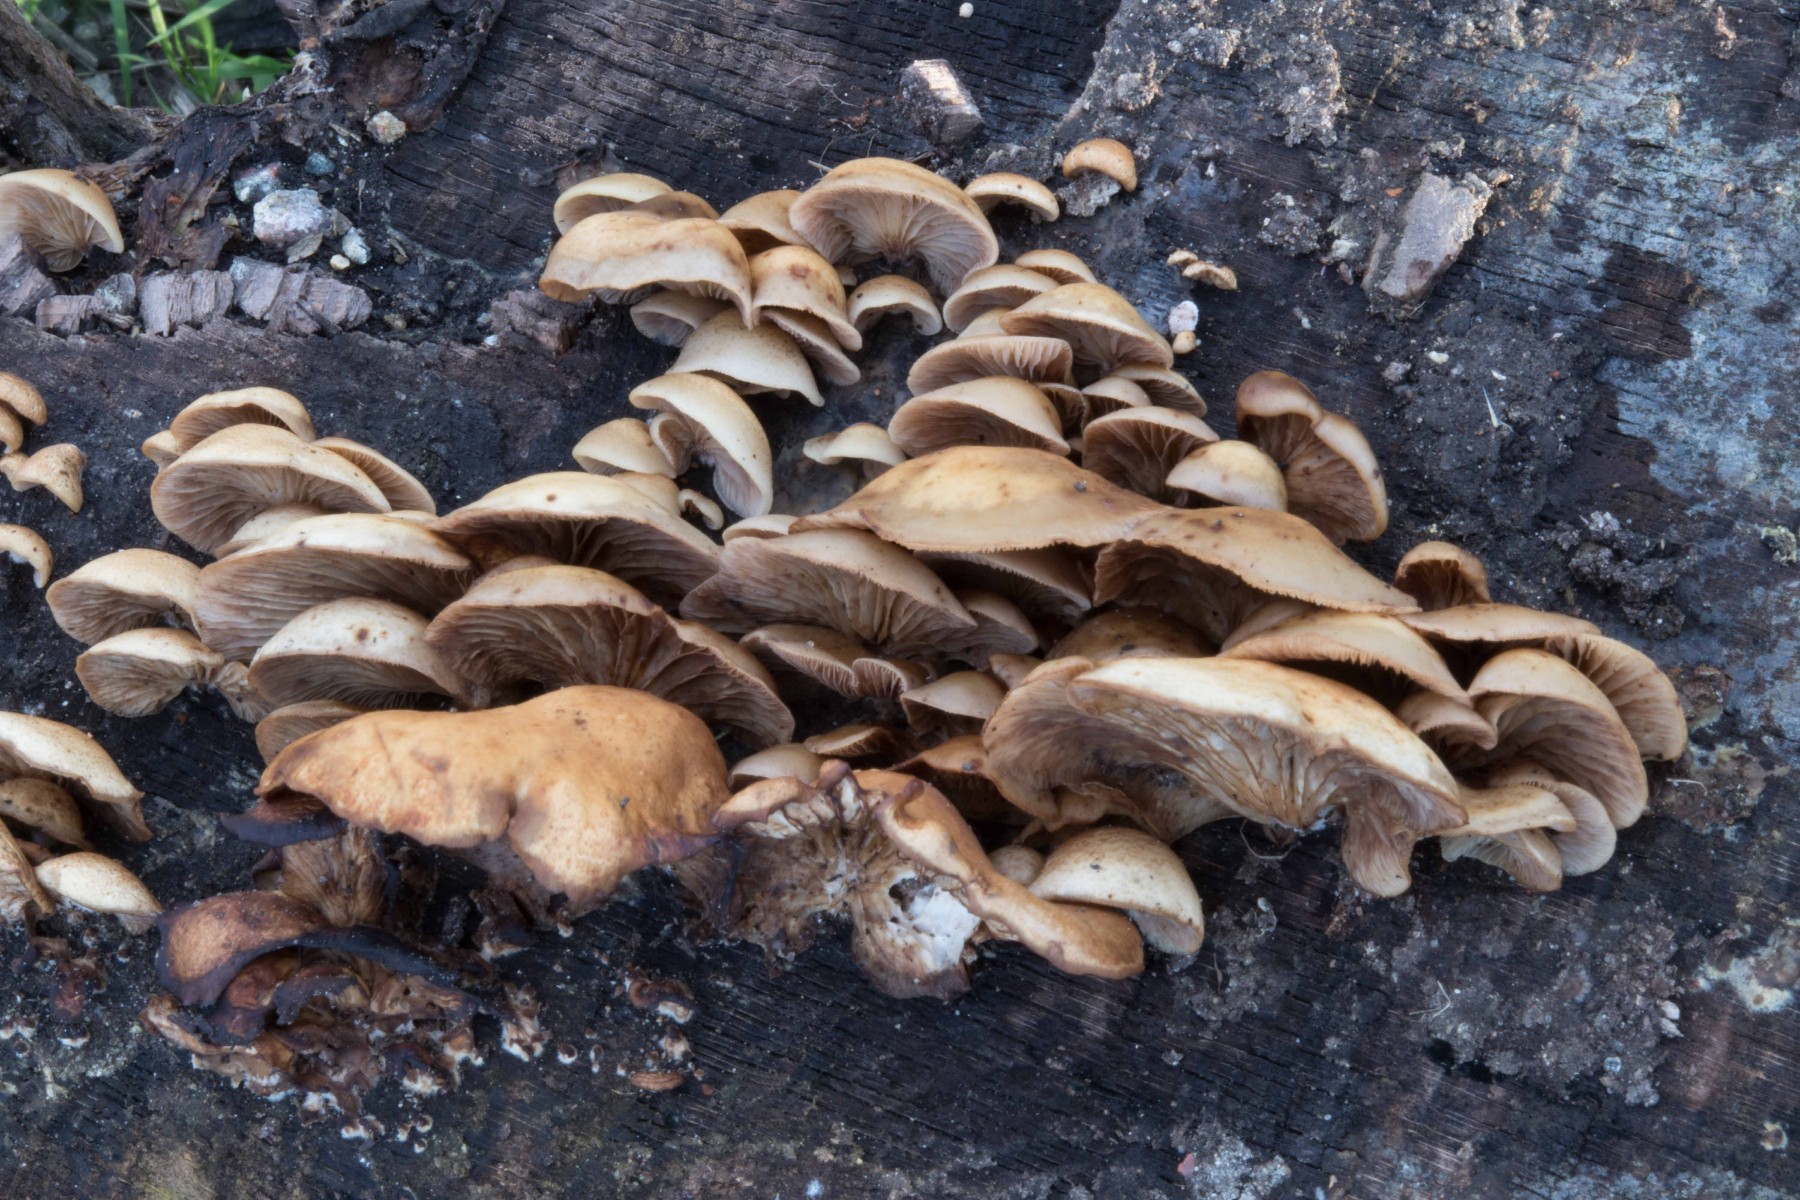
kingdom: Fungi
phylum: Basidiomycota
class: Agaricomycetes
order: Agaricales
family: Crepidotaceae
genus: Crepidotus
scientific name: Crepidotus mollis
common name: blød muslingesvamp
